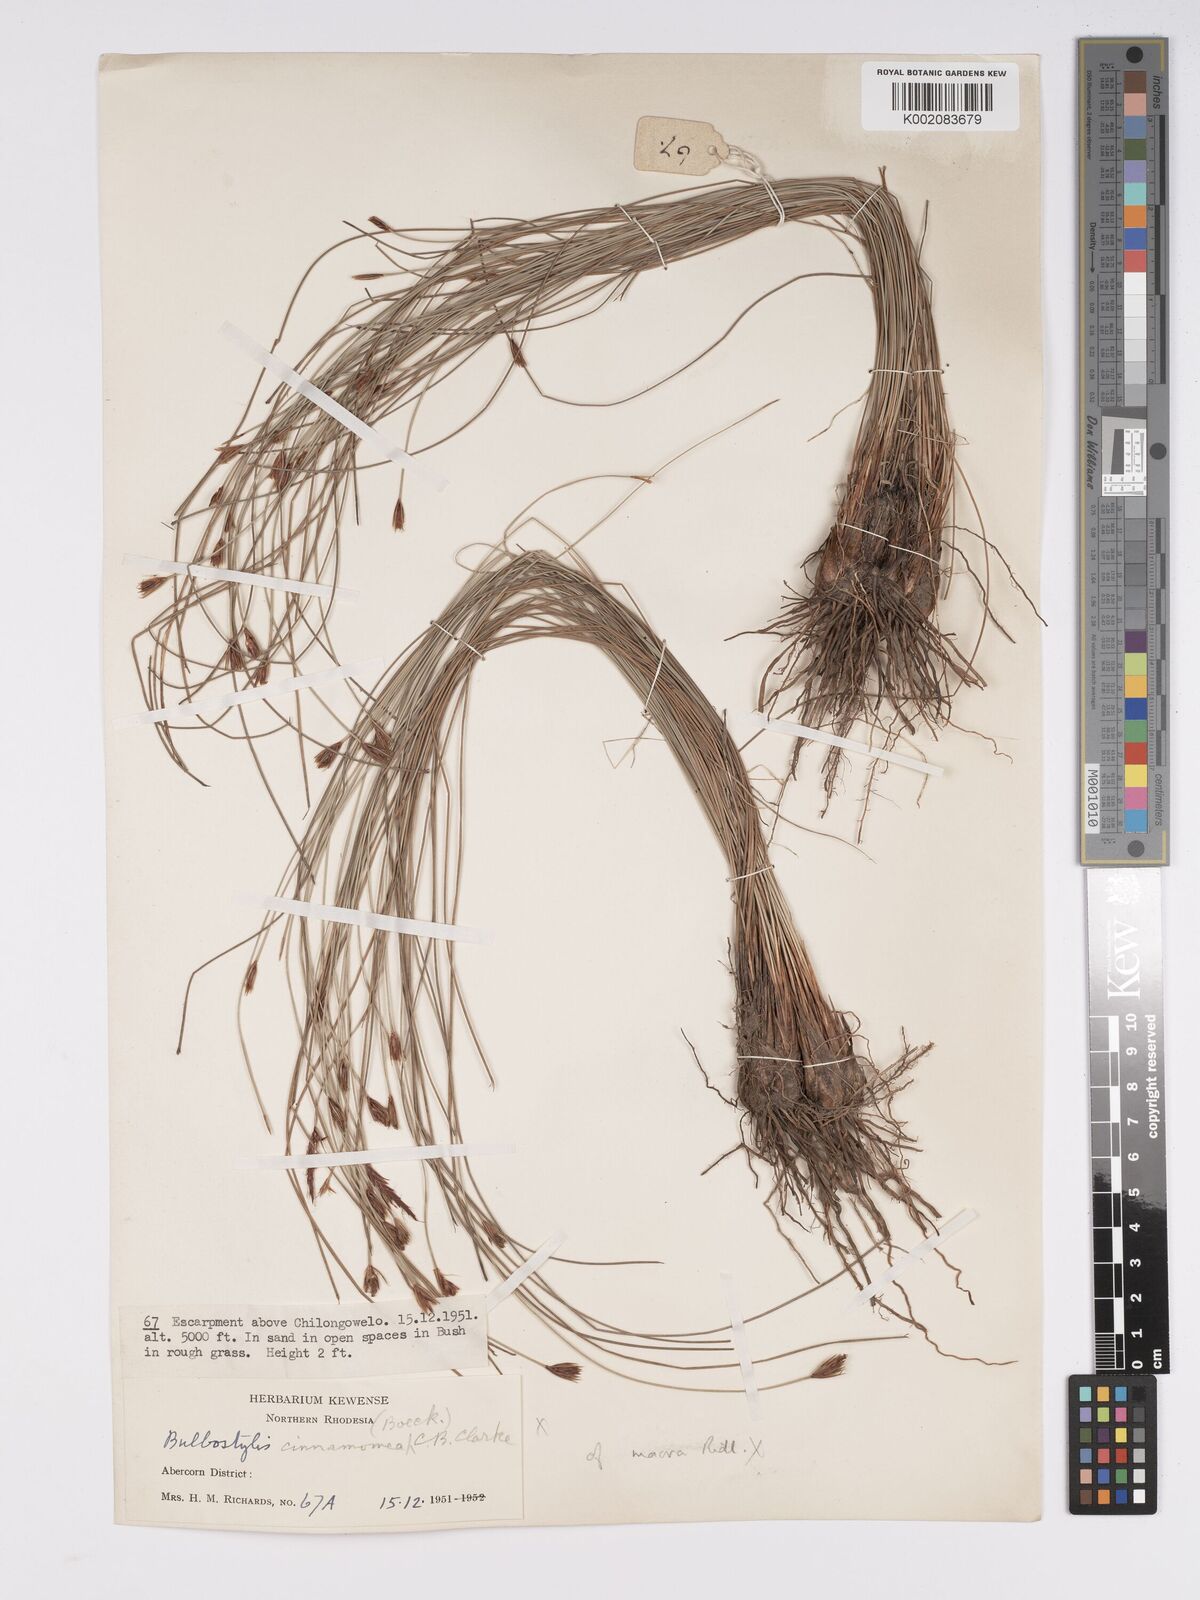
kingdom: Plantae
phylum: Tracheophyta
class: Liliopsida
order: Poales
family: Cyperaceae
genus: Bulbostylis
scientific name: Bulbostylis macra
